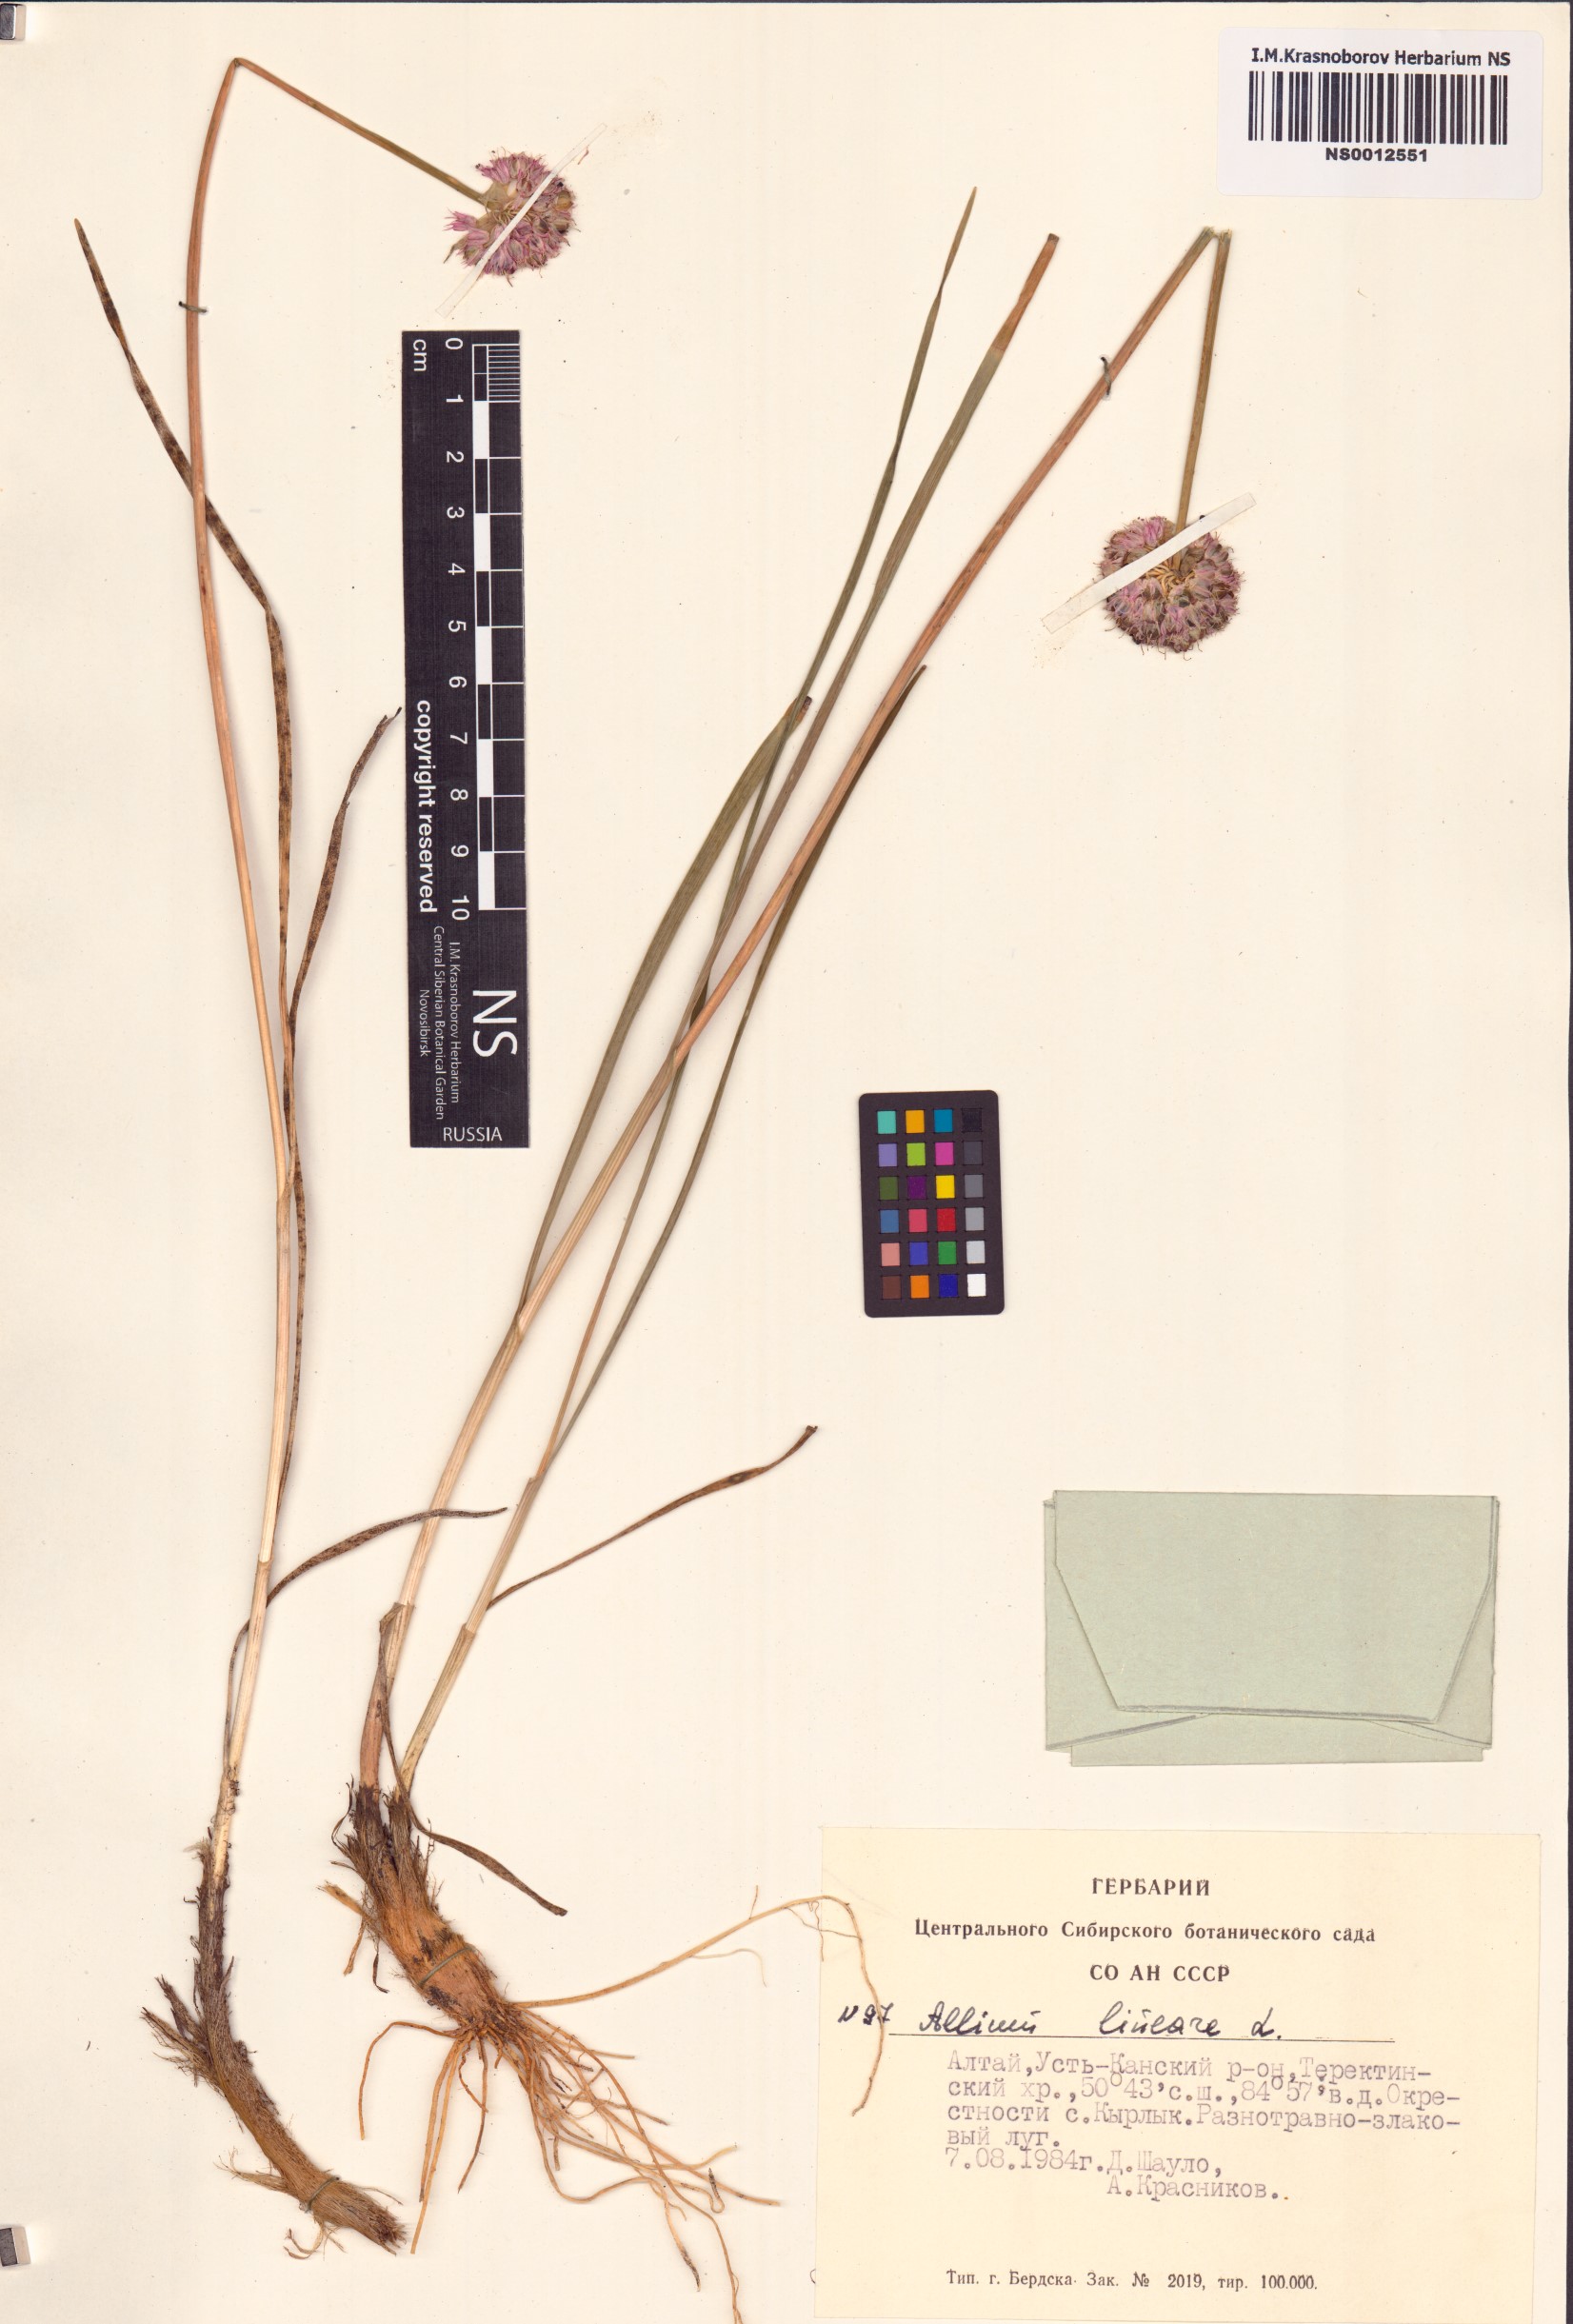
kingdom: Plantae
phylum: Tracheophyta
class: Liliopsida
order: Asparagales
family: Amaryllidaceae
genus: Allium
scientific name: Allium lineare
